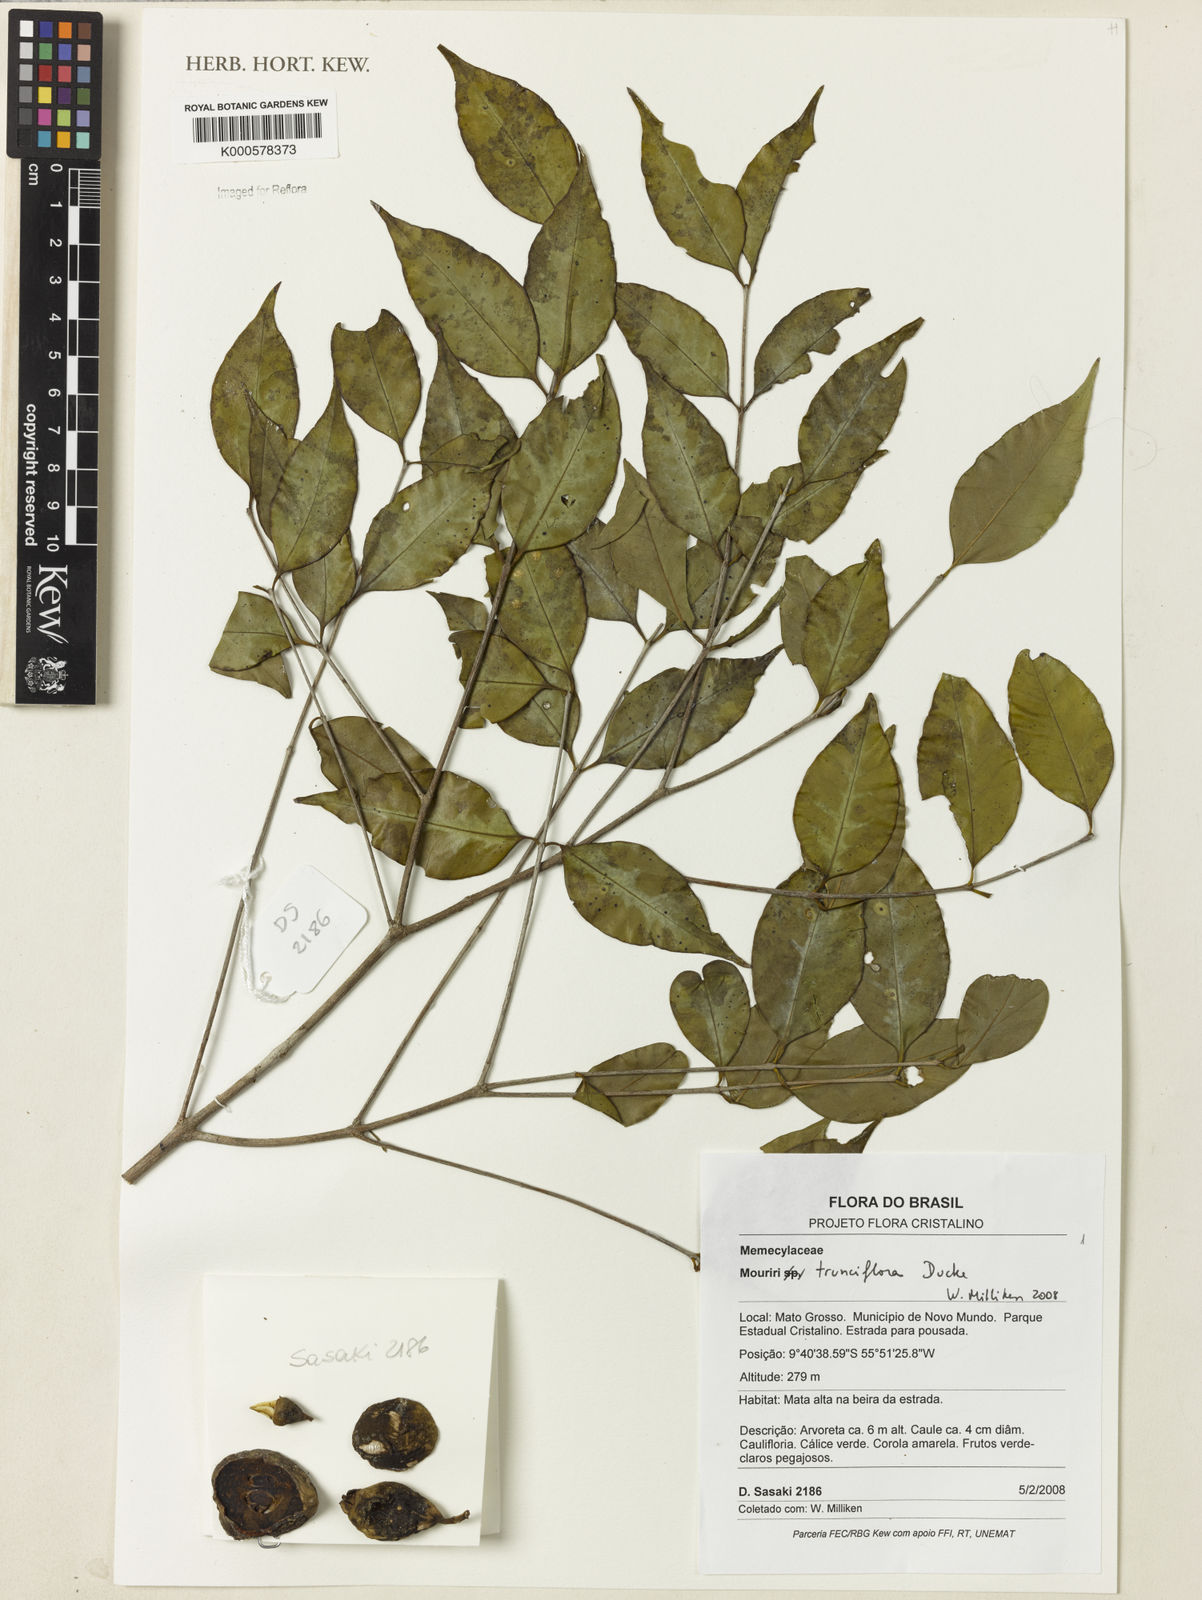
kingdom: Plantae
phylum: Tracheophyta
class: Magnoliopsida
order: Myrtales
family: Melastomataceae
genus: Mouriri
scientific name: Mouriri trunciflora
